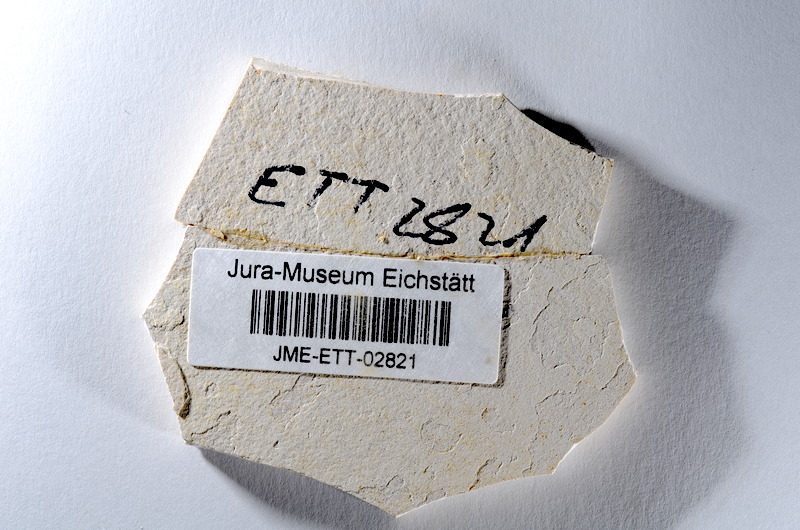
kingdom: Animalia
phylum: Chordata
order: Salmoniformes
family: Orthogonikleithridae
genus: Orthogonikleithrus
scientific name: Orthogonikleithrus hoelli
